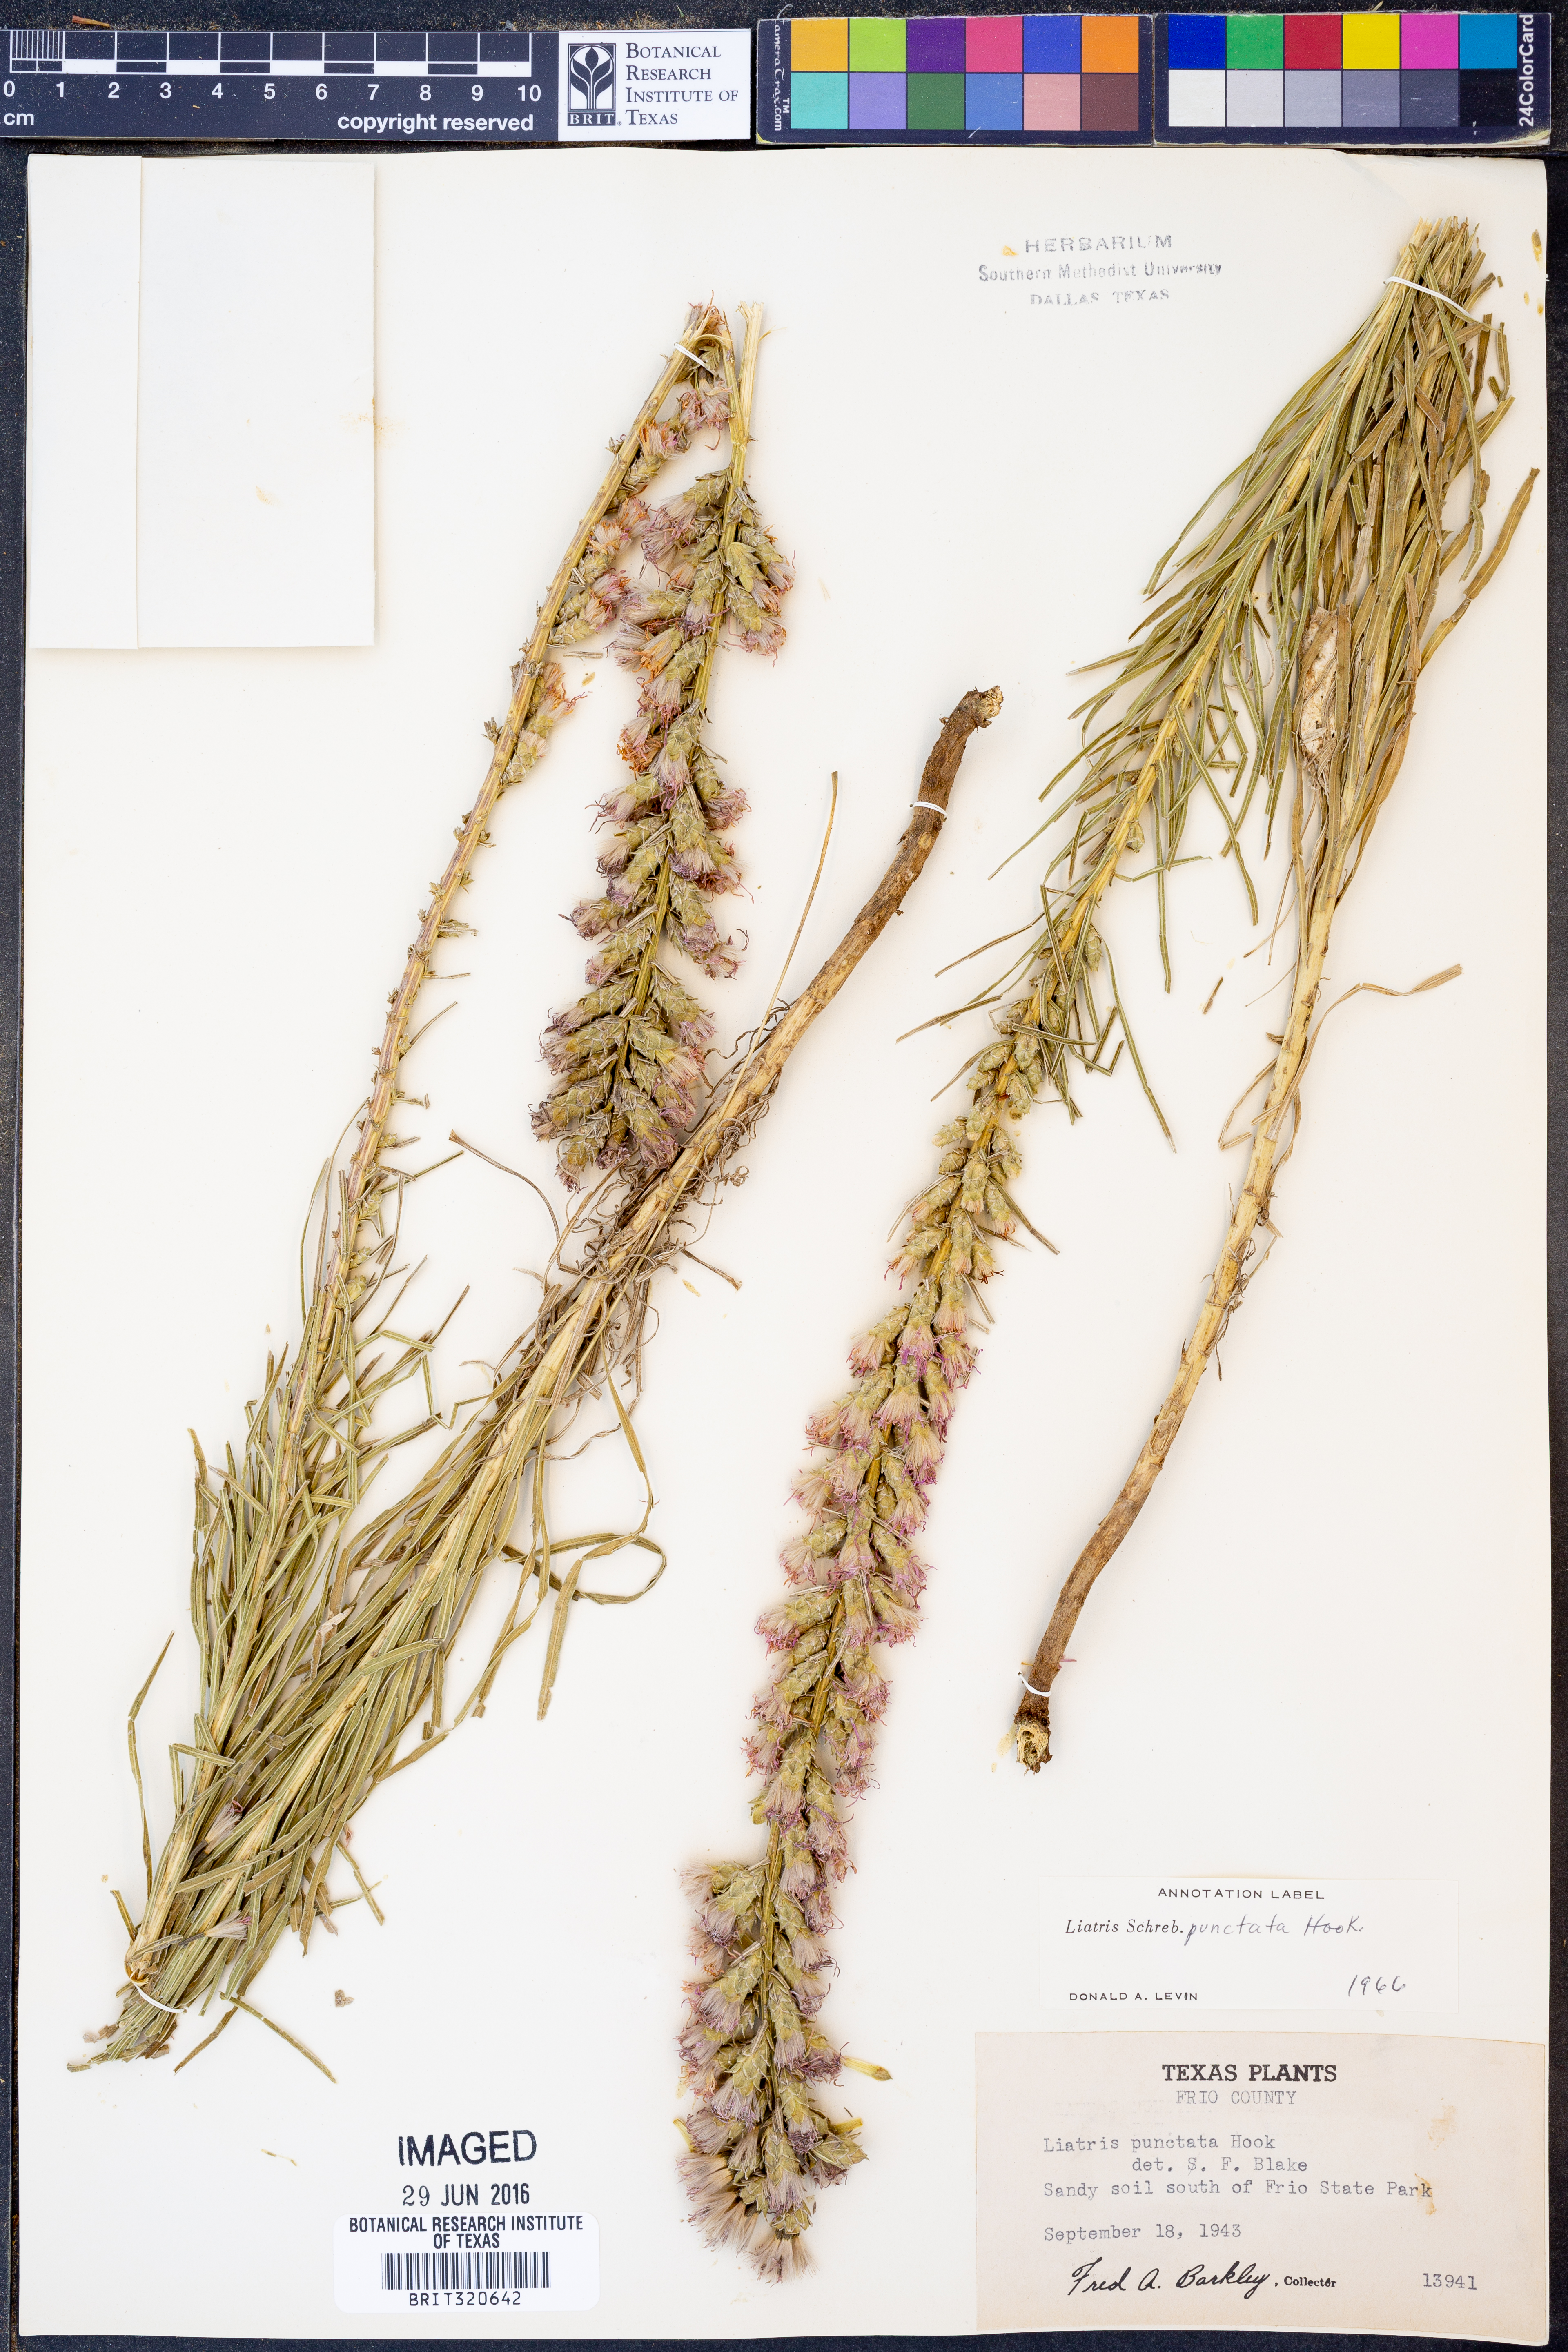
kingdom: Plantae
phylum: Tracheophyta
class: Magnoliopsida
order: Asterales
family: Asteraceae
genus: Liatris
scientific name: Liatris punctata
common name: Dotted gayfeather
